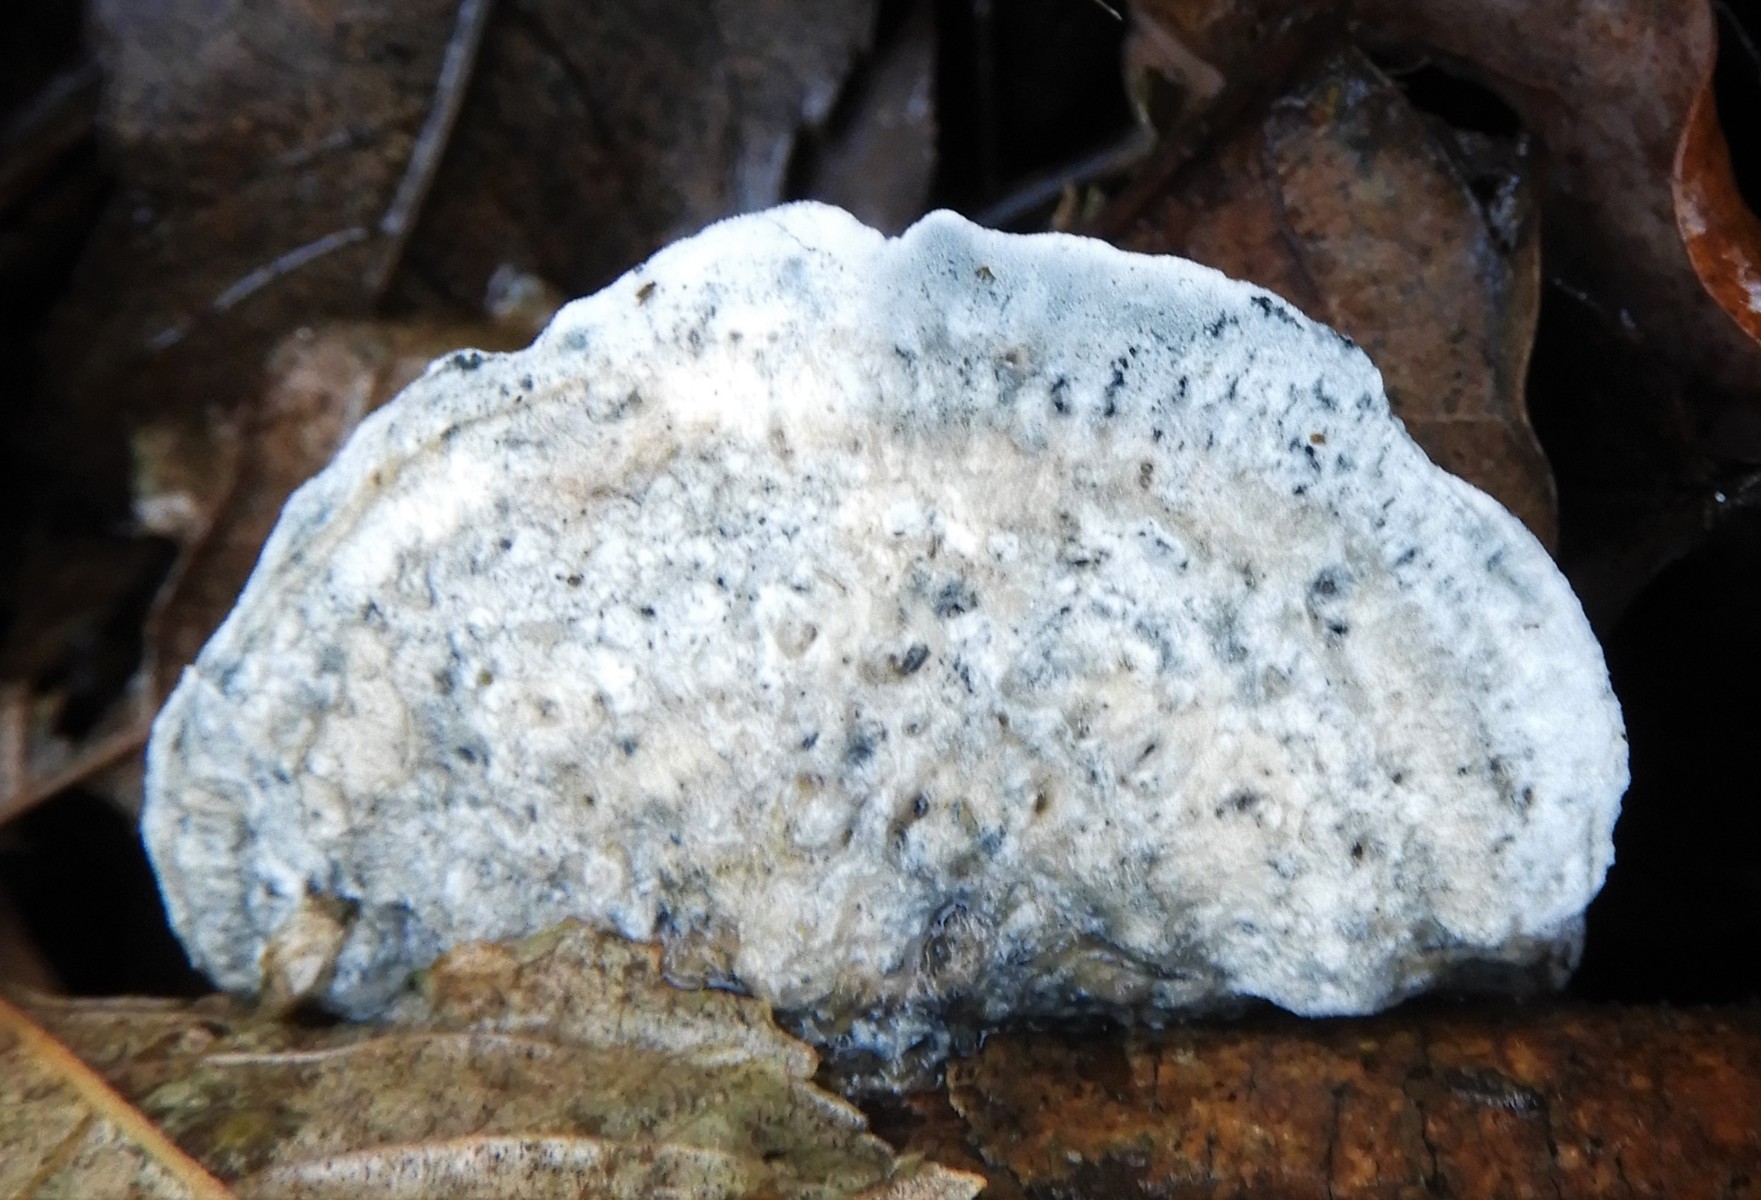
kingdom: Fungi
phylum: Basidiomycota
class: Agaricomycetes
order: Polyporales
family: Polyporaceae
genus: Cyanosporus
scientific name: Cyanosporus caesius
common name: blålig kødporesvamp
